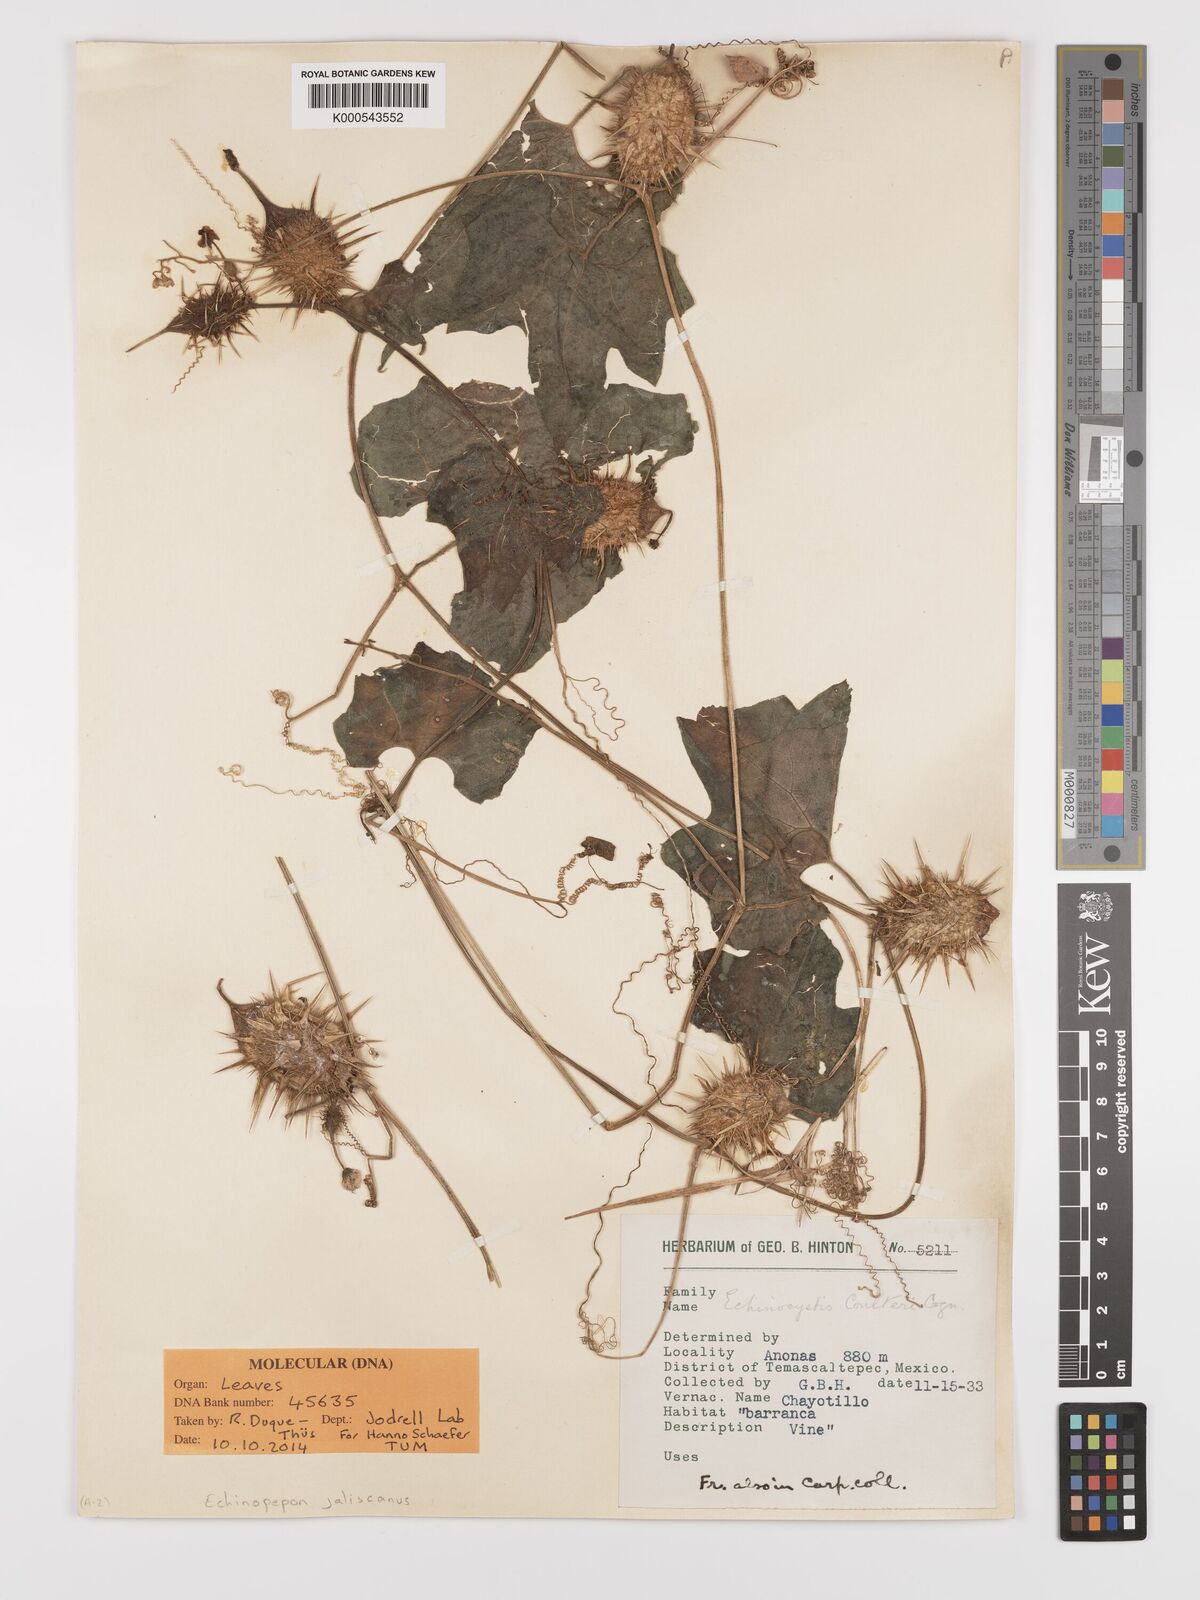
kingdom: Plantae
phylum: Tracheophyta
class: Magnoliopsida
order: Cucurbitales
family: Cucurbitaceae
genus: Echinopepon
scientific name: Echinopepon jaliscanus
